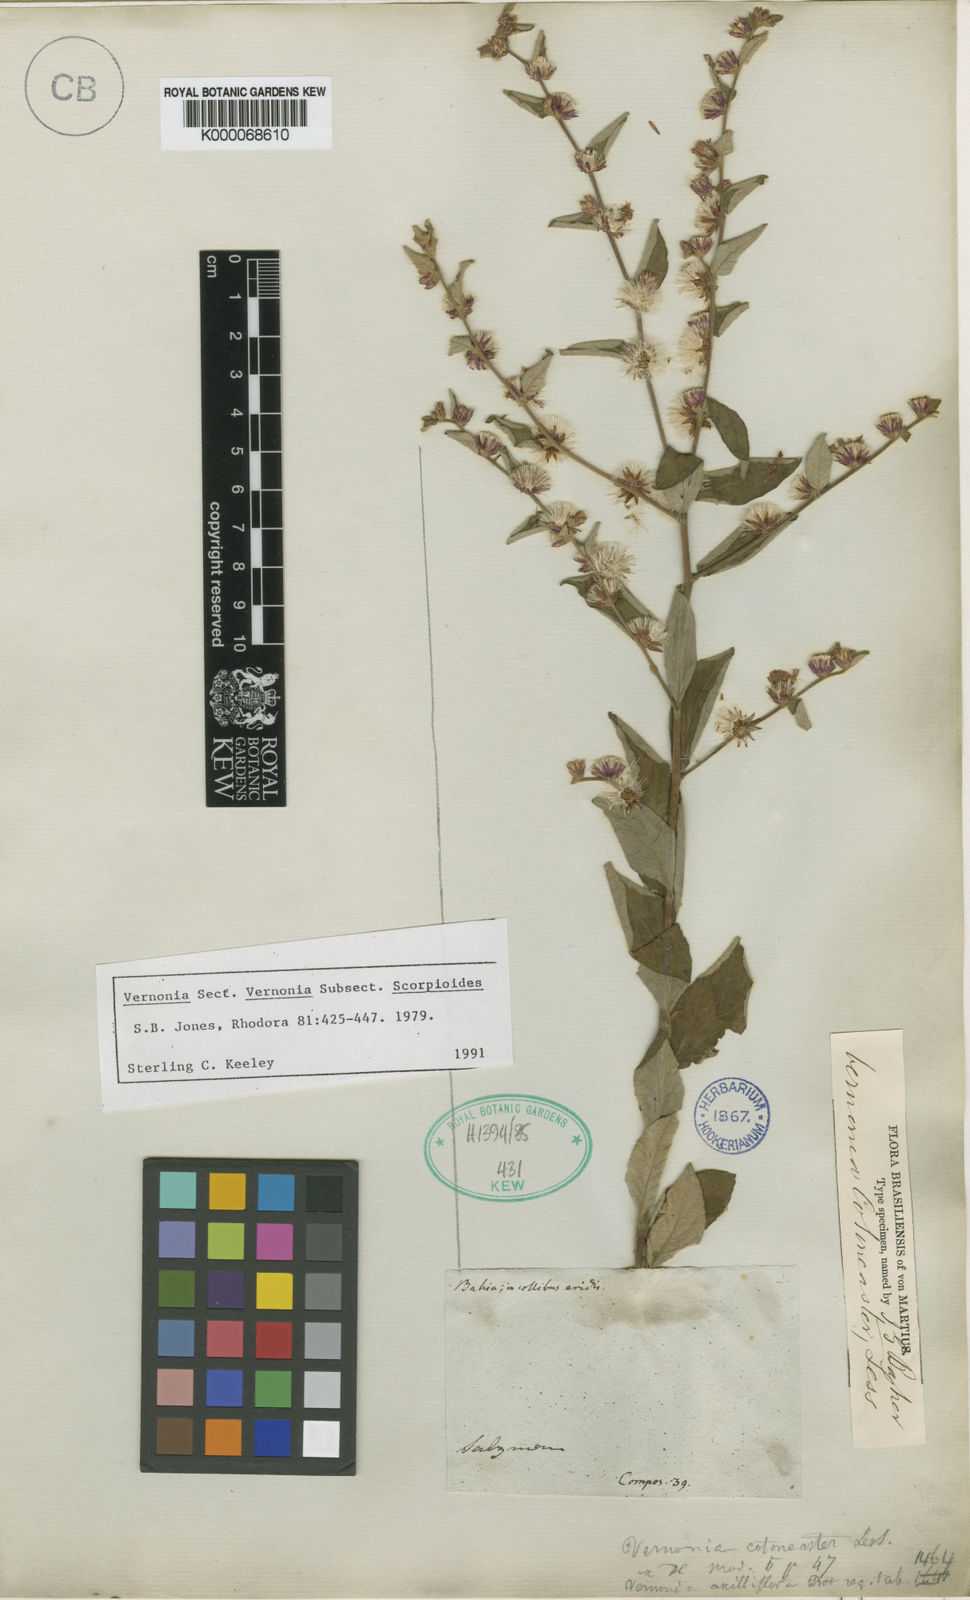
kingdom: Plantae
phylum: Tracheophyta
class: Magnoliopsida
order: Asterales
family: Asteraceae
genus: Lepidaploa
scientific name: Lepidaploa cotoneaster
